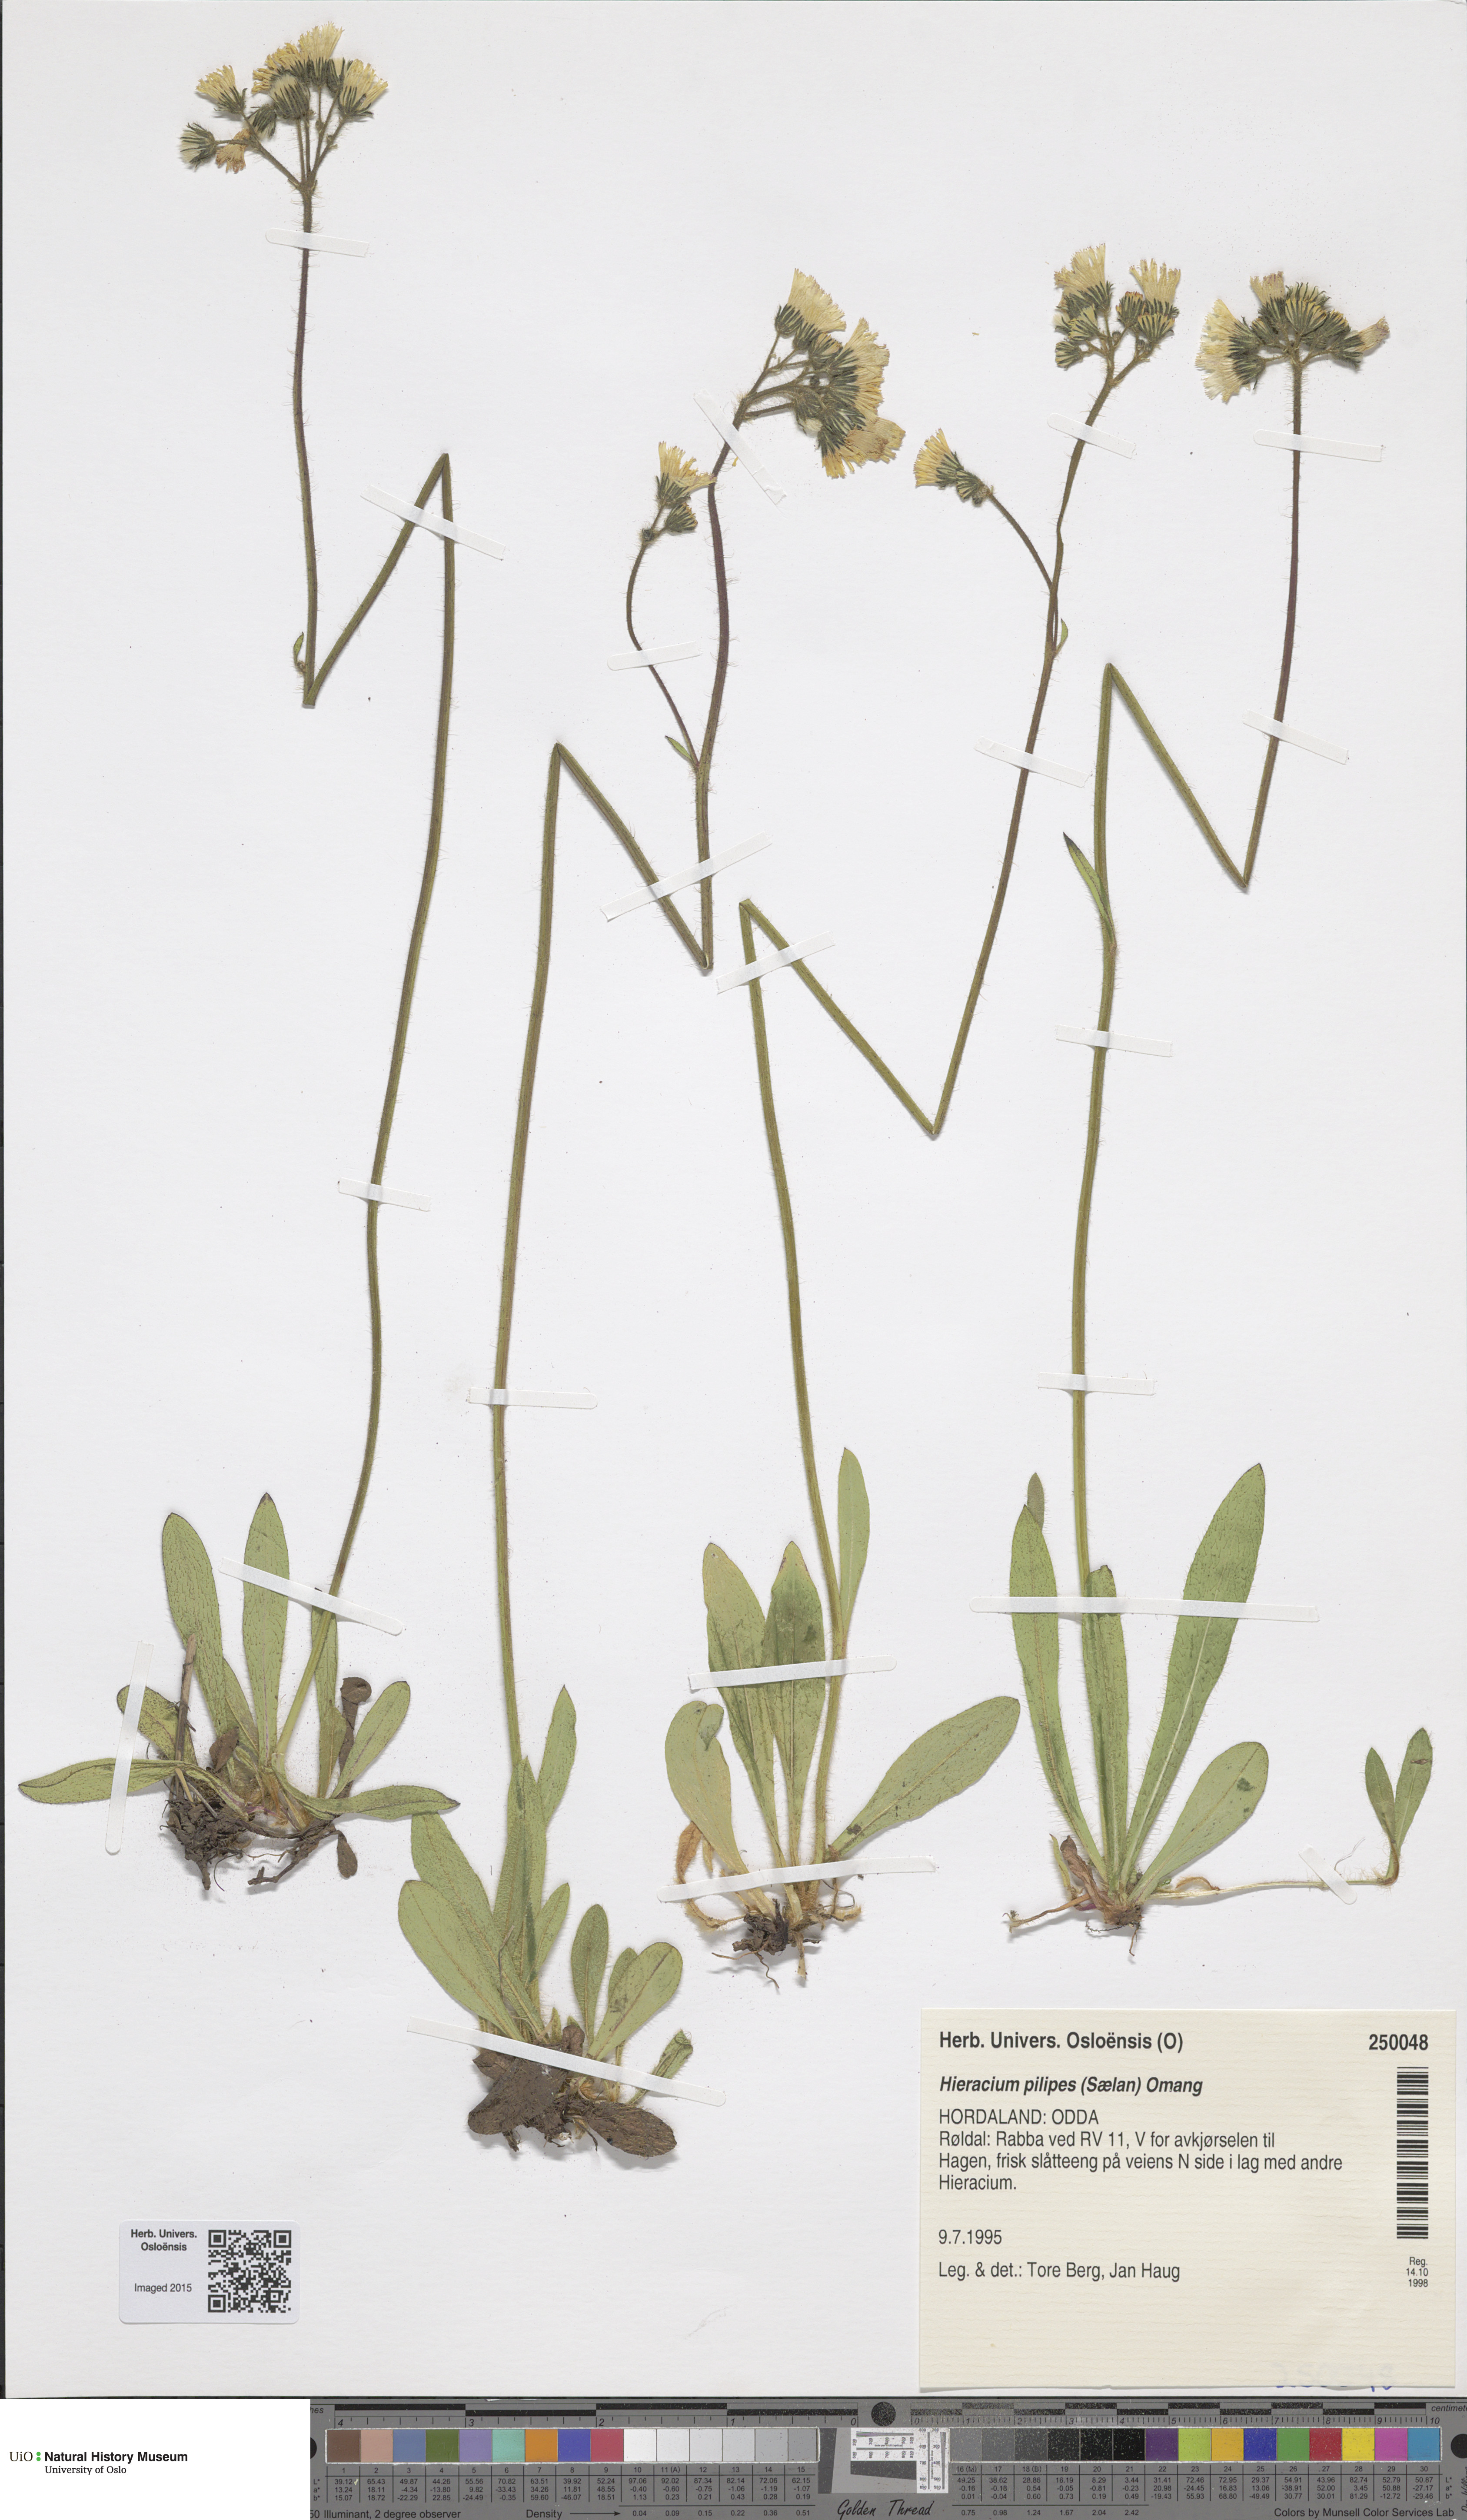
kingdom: Plantae
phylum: Tracheophyta
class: Magnoliopsida
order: Asterales
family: Asteraceae
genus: Pilosella
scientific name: Pilosella dubia
